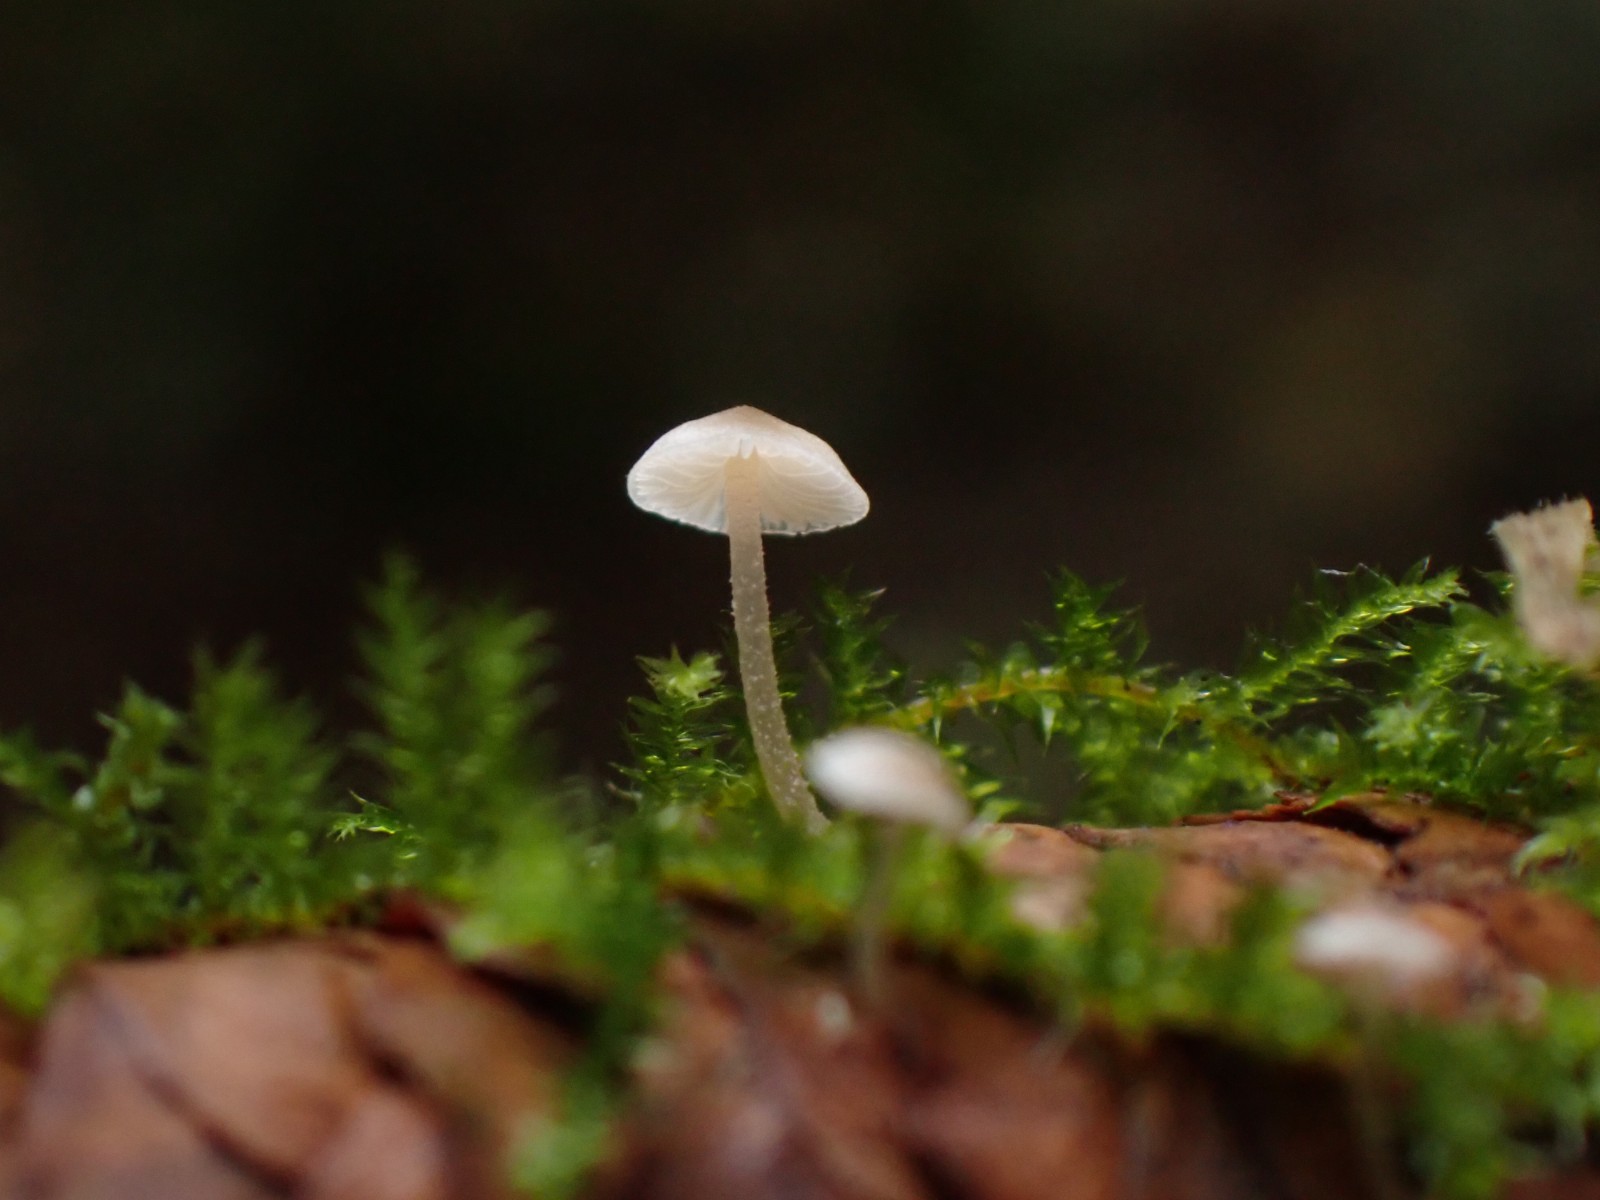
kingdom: Fungi
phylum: Basidiomycota
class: Agaricomycetes
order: Agaricales
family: Marasmiaceae
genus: Baeospora
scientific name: Baeospora myosura
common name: koglebruskhat
